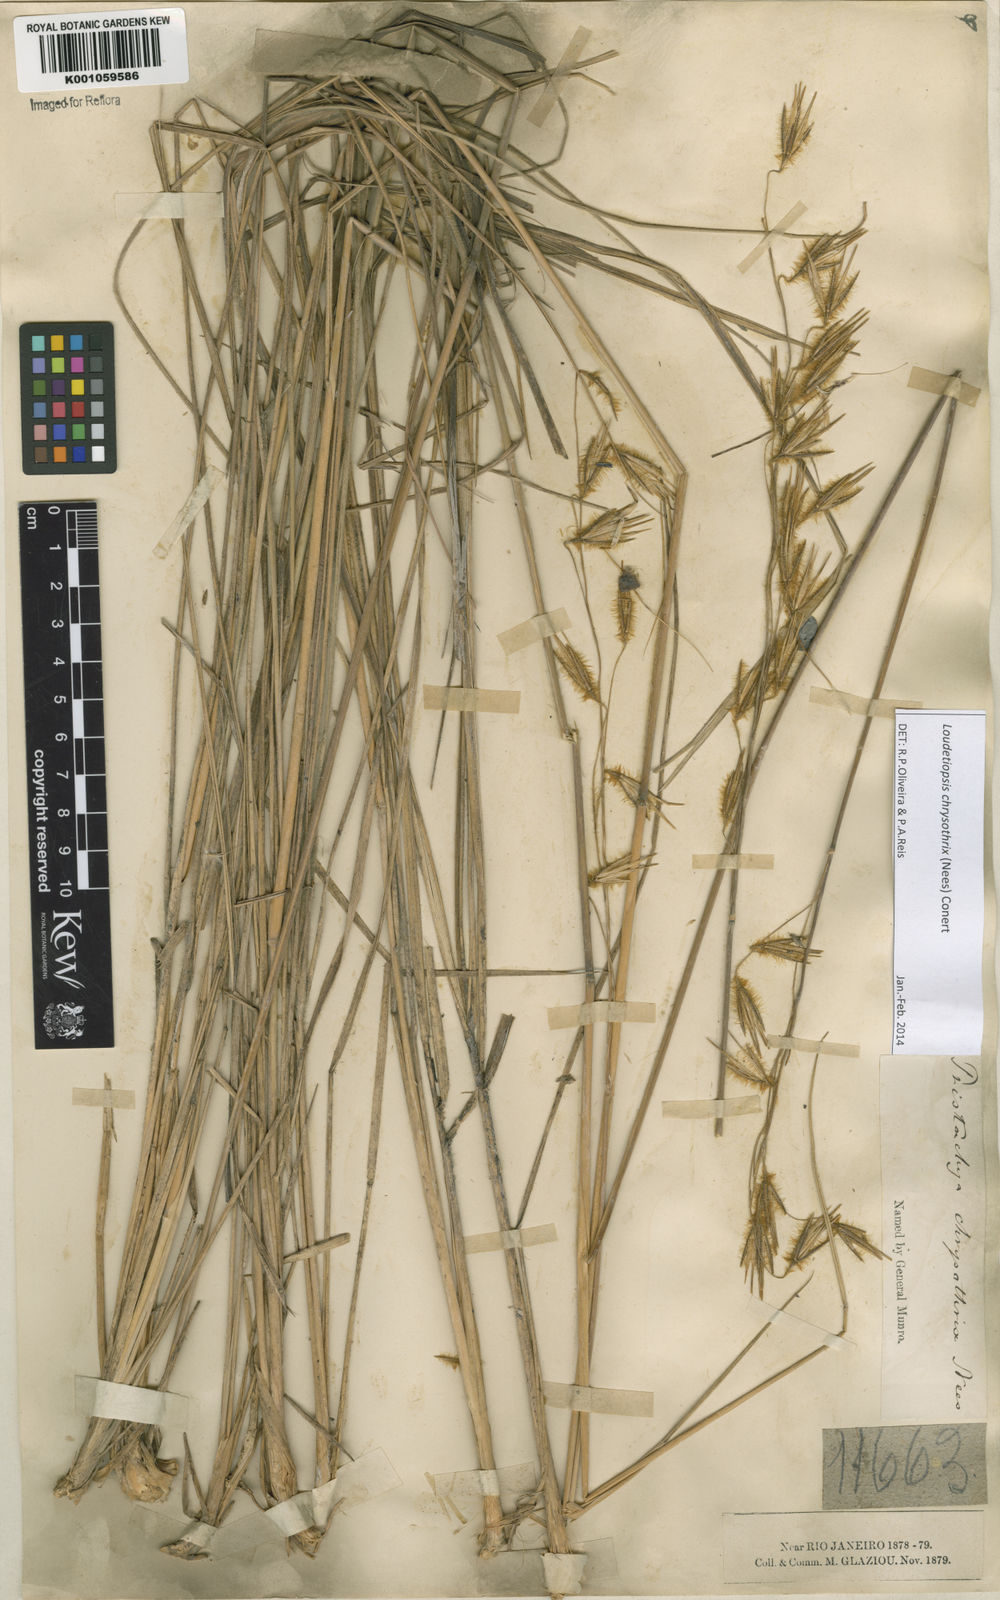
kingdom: Plantae
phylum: Tracheophyta
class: Liliopsida
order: Poales
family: Poaceae
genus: Loudetiopsis
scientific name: Loudetiopsis chrysothrix
